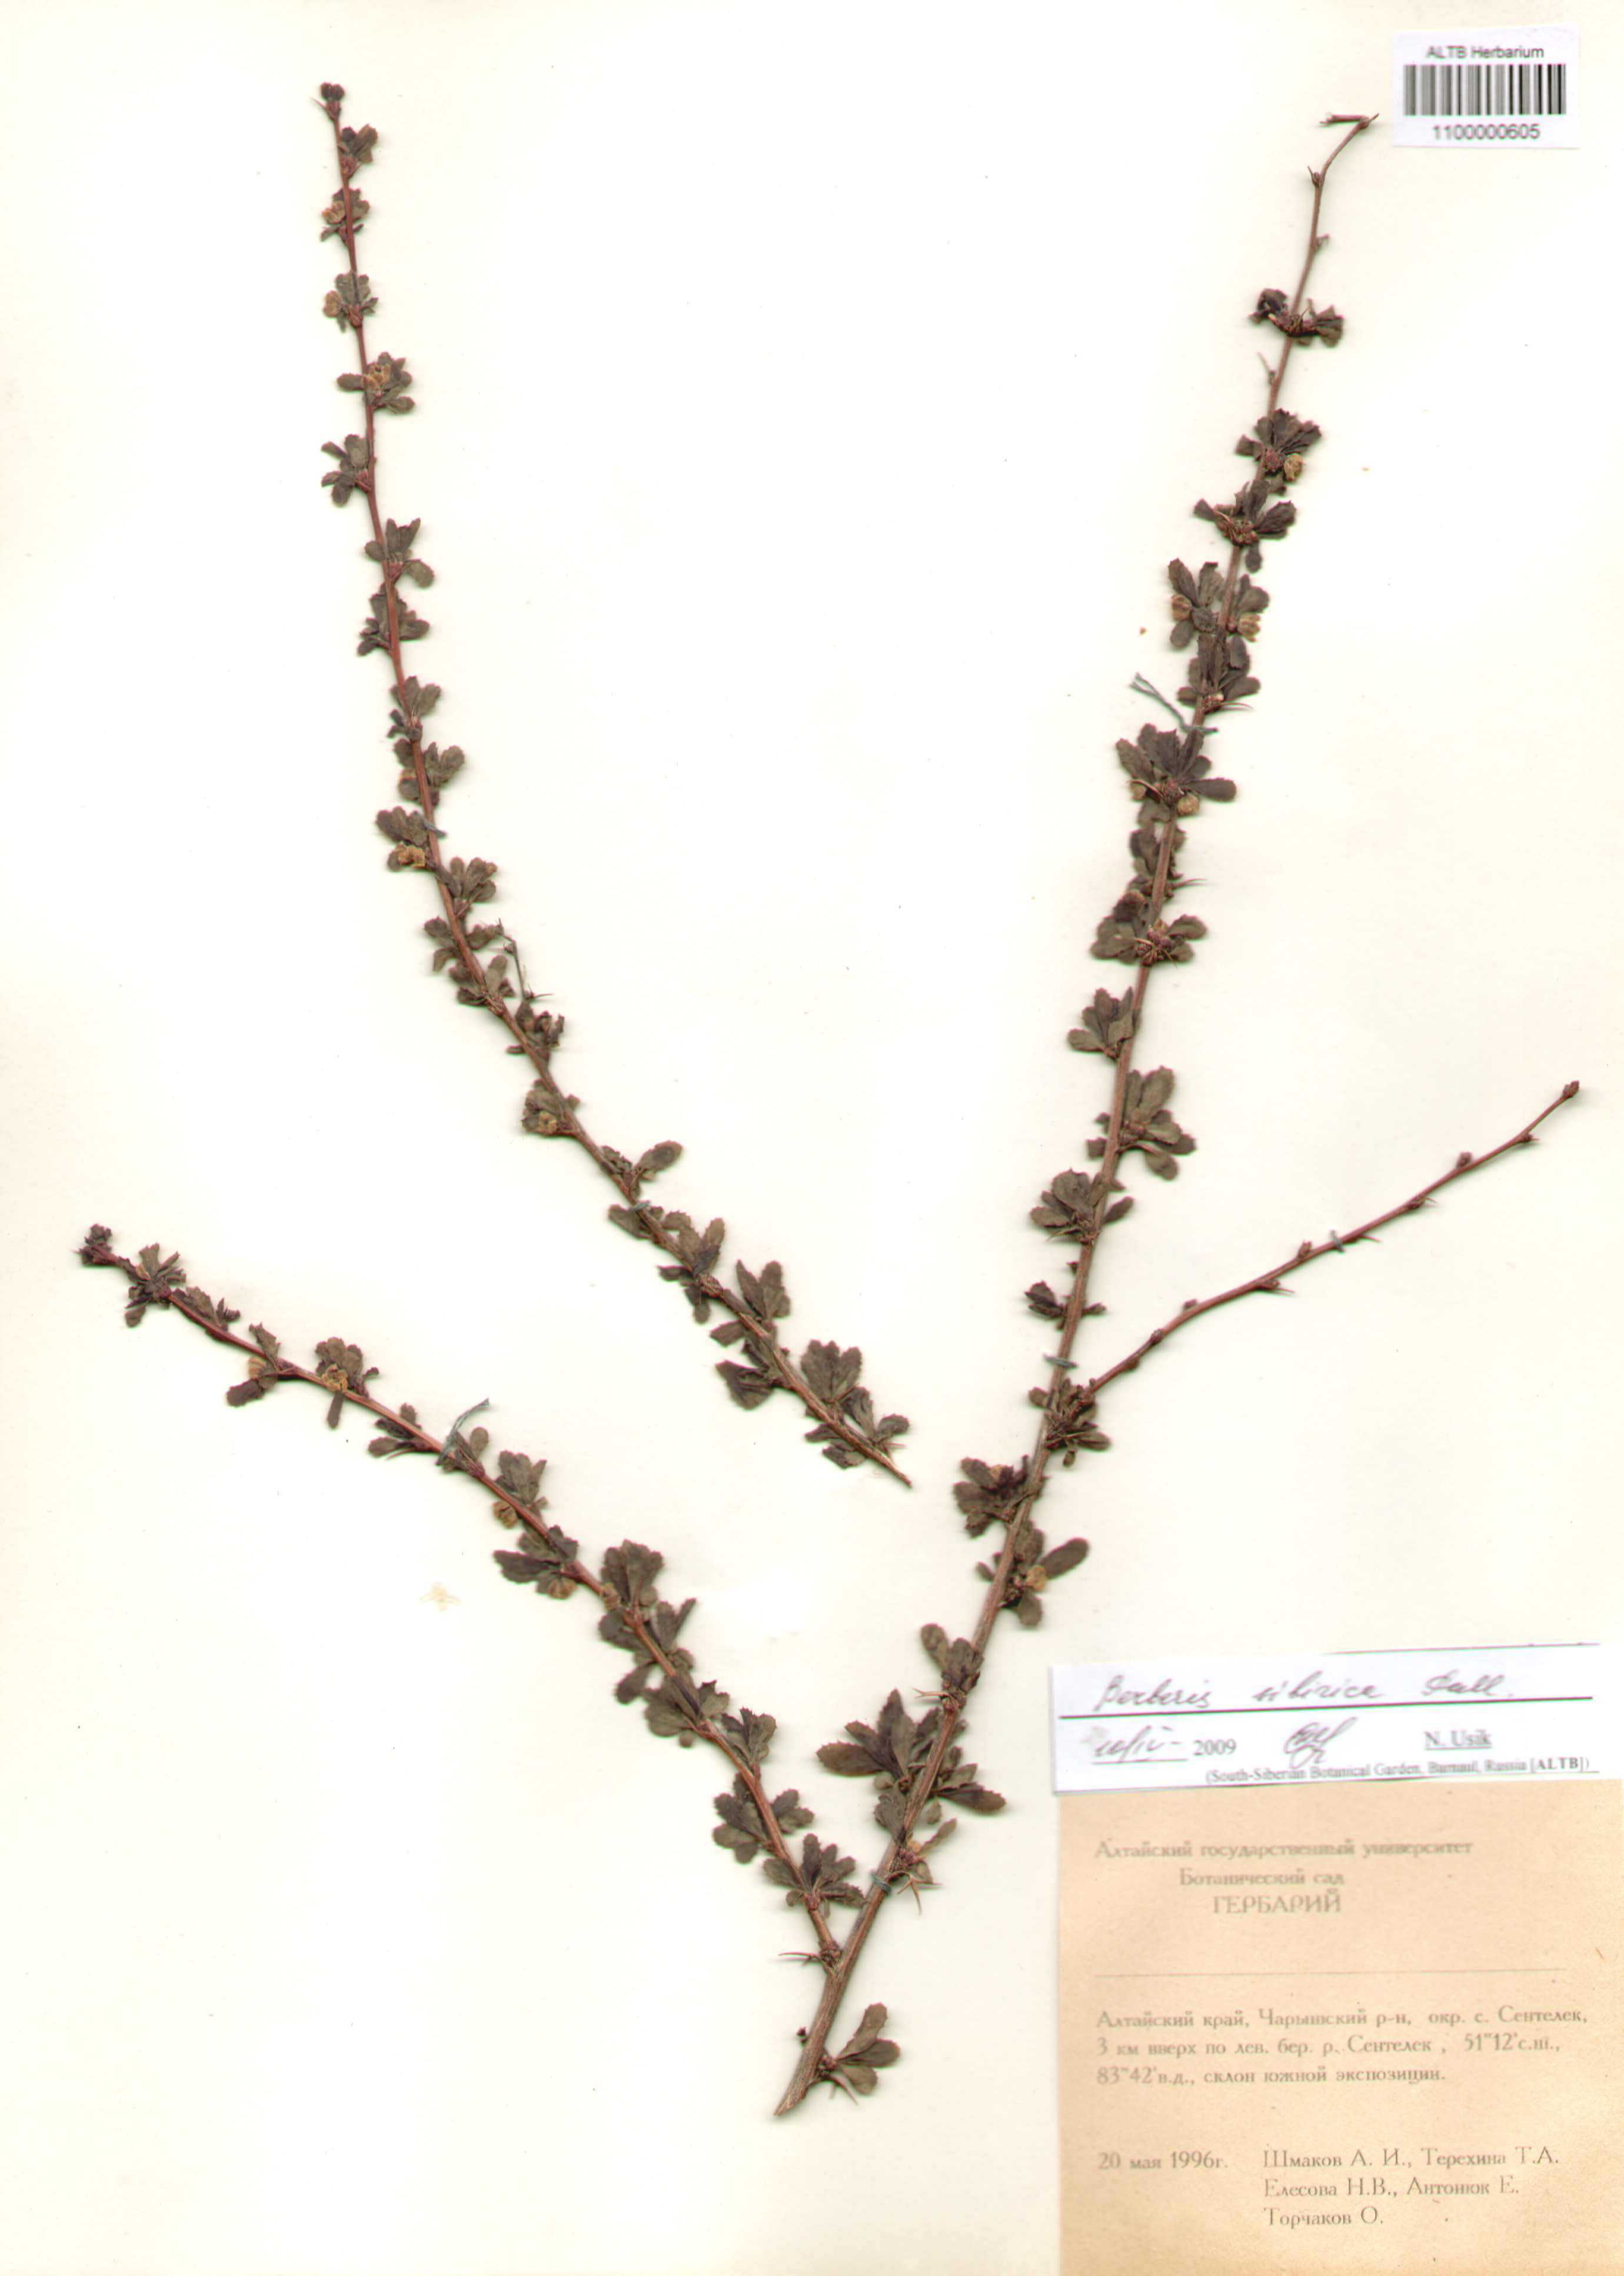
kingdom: Plantae
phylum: Tracheophyta
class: Magnoliopsida
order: Ranunculales
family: Berberidaceae
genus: Berberis
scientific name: Berberis sibirica
